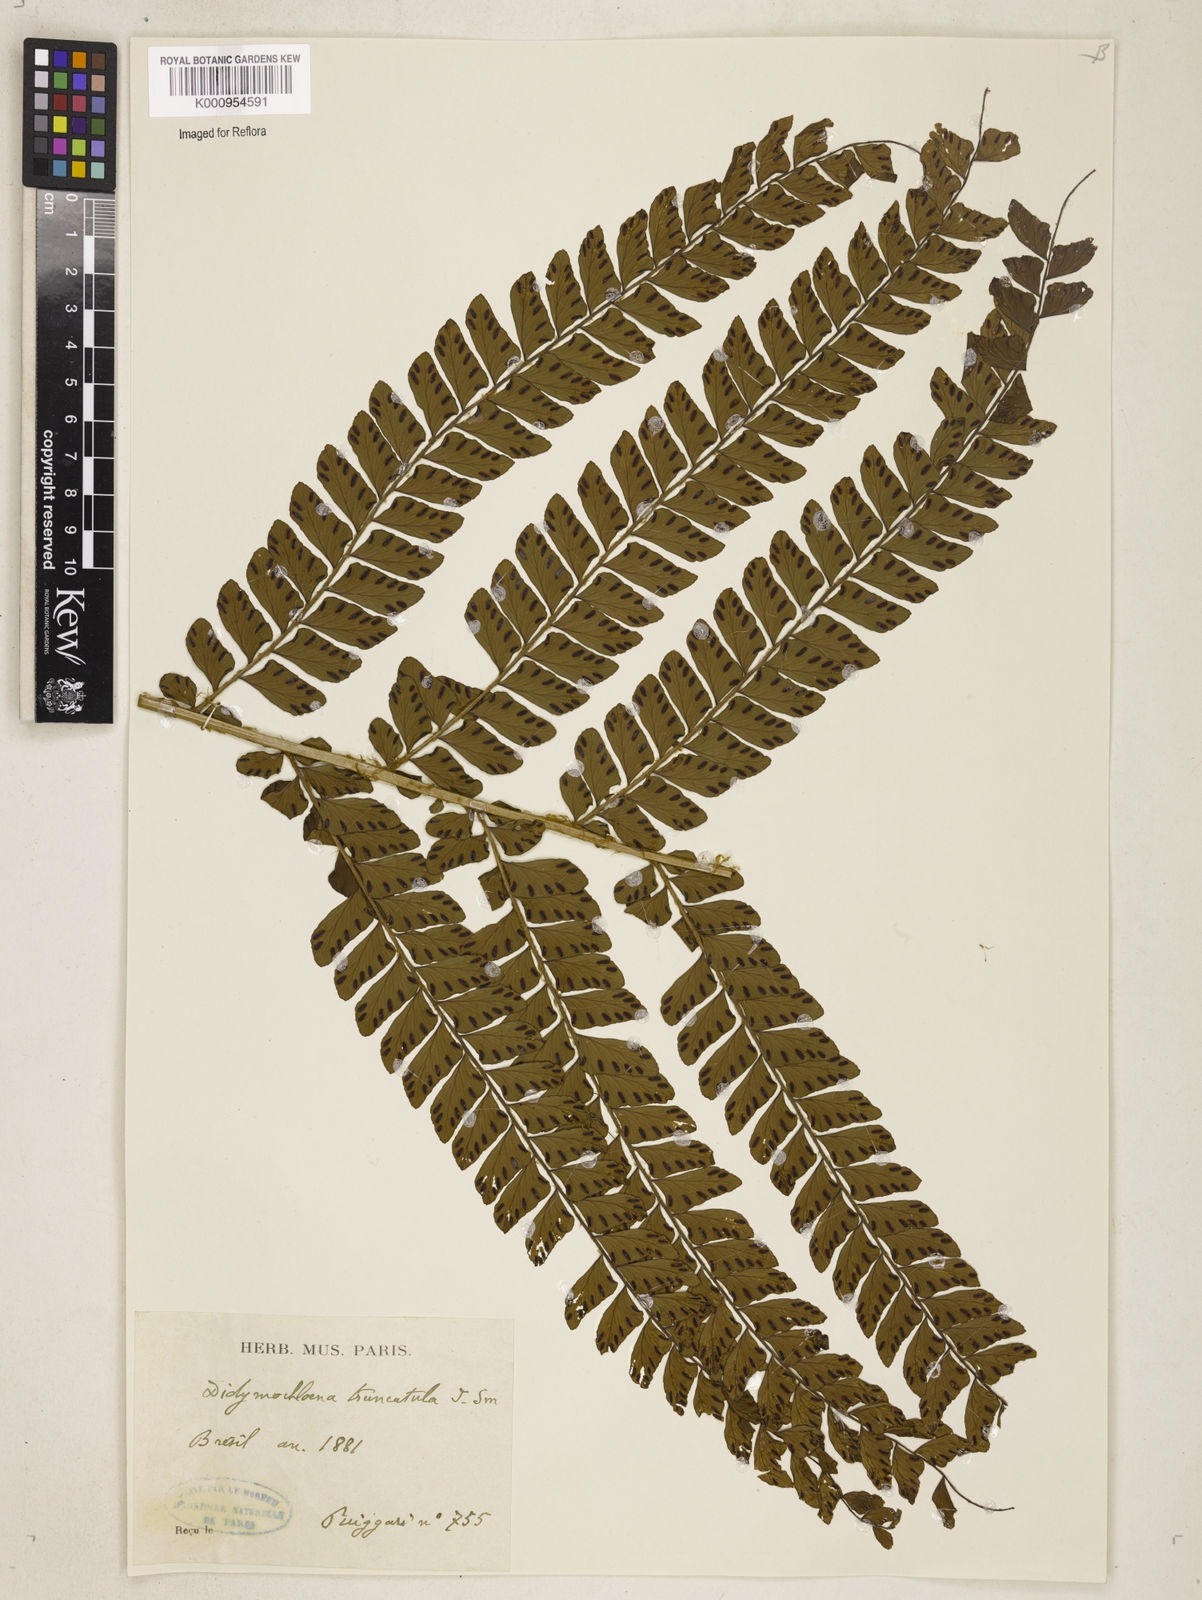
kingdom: Plantae
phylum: Tracheophyta
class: Polypodiopsida
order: Polypodiales
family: Didymochlaenaceae
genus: Didymochlaena
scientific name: Didymochlaena truncatula
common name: Mahogany fern
